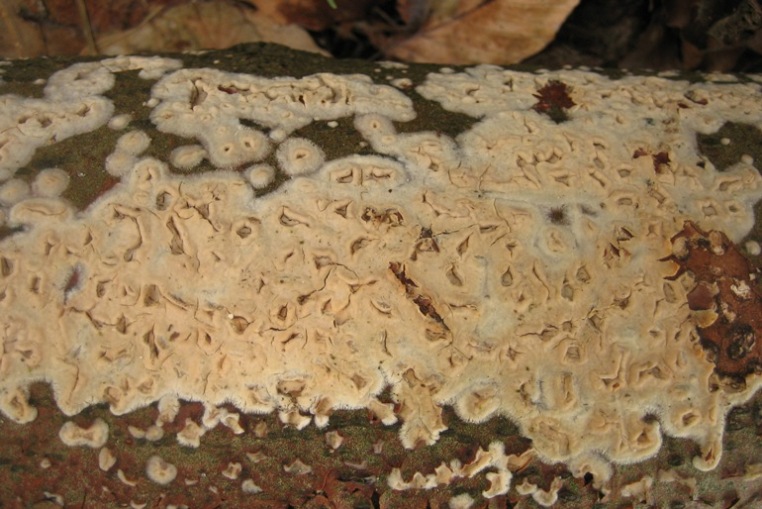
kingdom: Fungi
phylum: Basidiomycota
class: Agaricomycetes
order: Agaricales
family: Radulomycetaceae
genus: Radulomyces
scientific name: Radulomyces confluens
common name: glat naftalinskind
